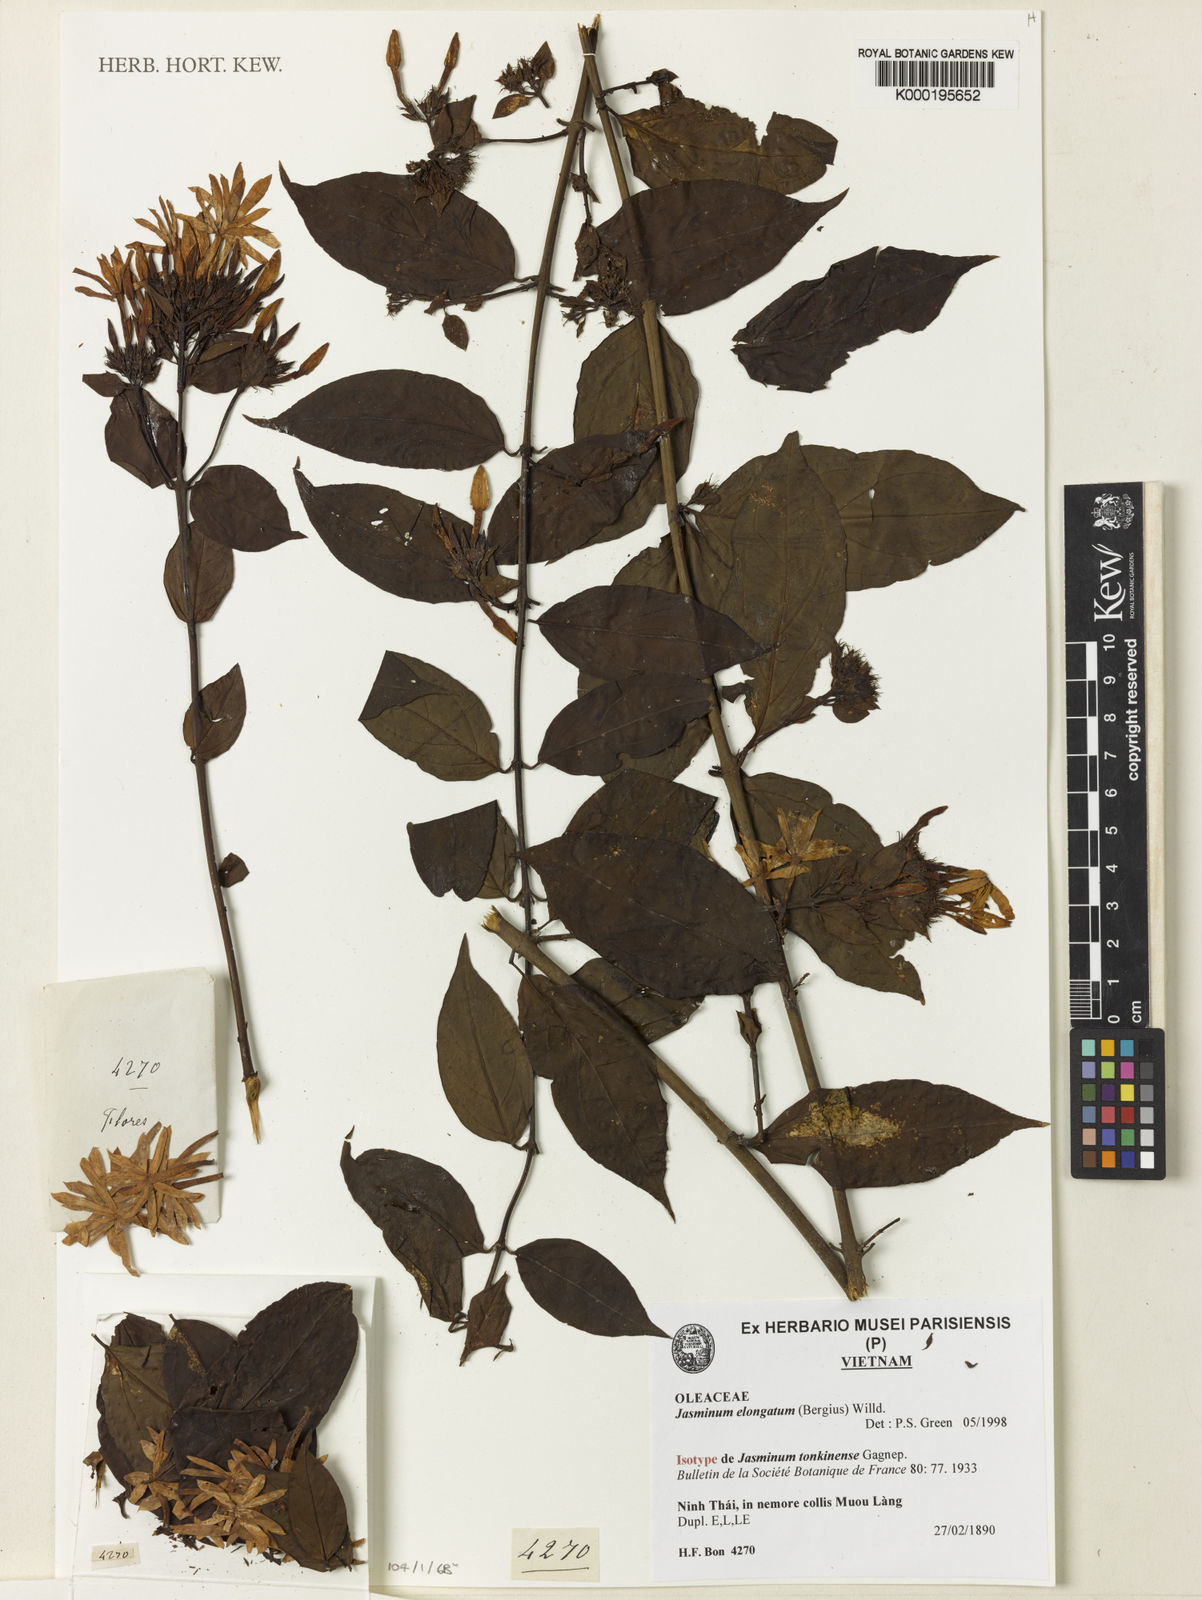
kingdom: Plantae
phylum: Tracheophyta
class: Magnoliopsida
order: Lamiales
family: Oleaceae
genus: Jasminum
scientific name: Jasminum elongatum
